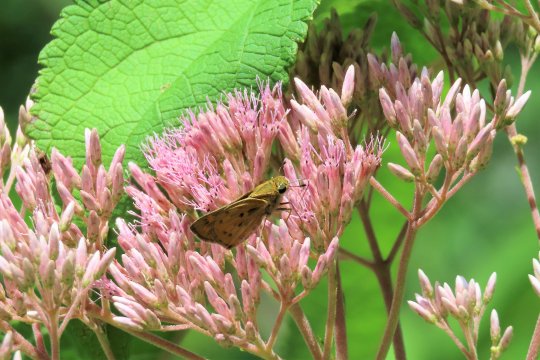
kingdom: Animalia
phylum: Arthropoda
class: Insecta
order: Lepidoptera
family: Hesperiidae
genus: Atalopedes
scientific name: Atalopedes campestris
